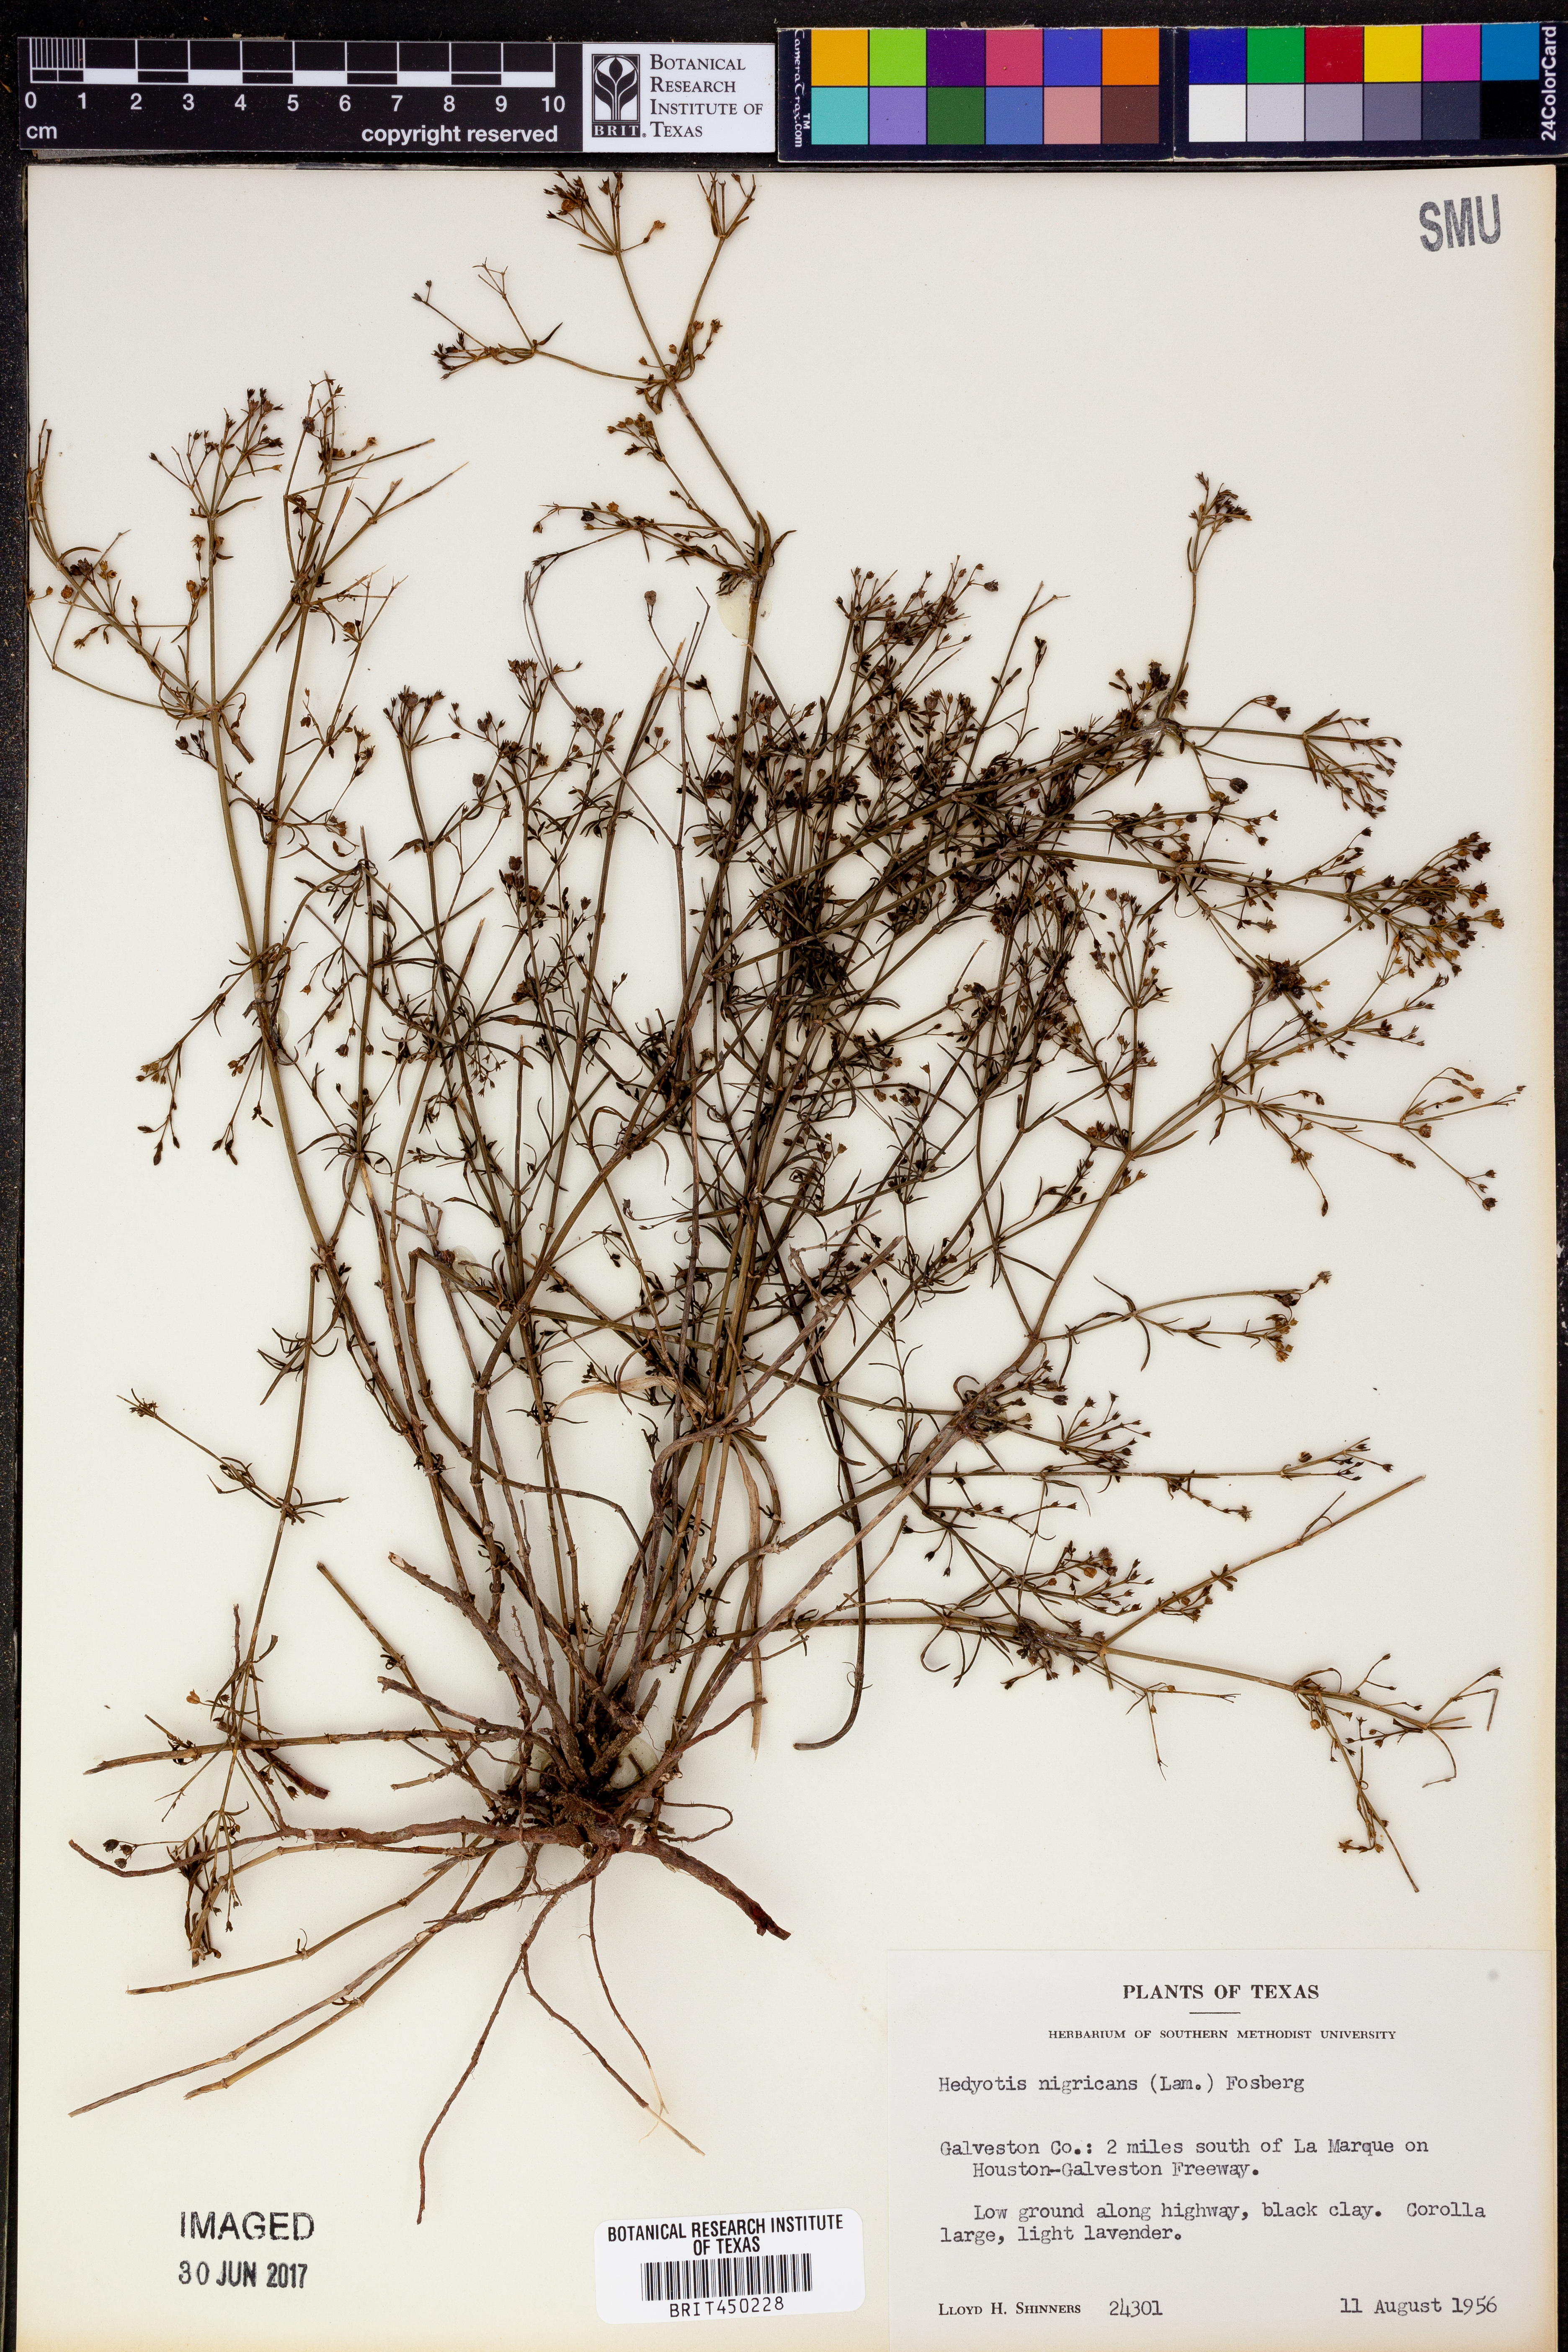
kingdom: Plantae
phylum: Tracheophyta
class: Magnoliopsida
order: Gentianales
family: Rubiaceae
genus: Stenaria
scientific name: Stenaria nigricans
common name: Diamondflowers
